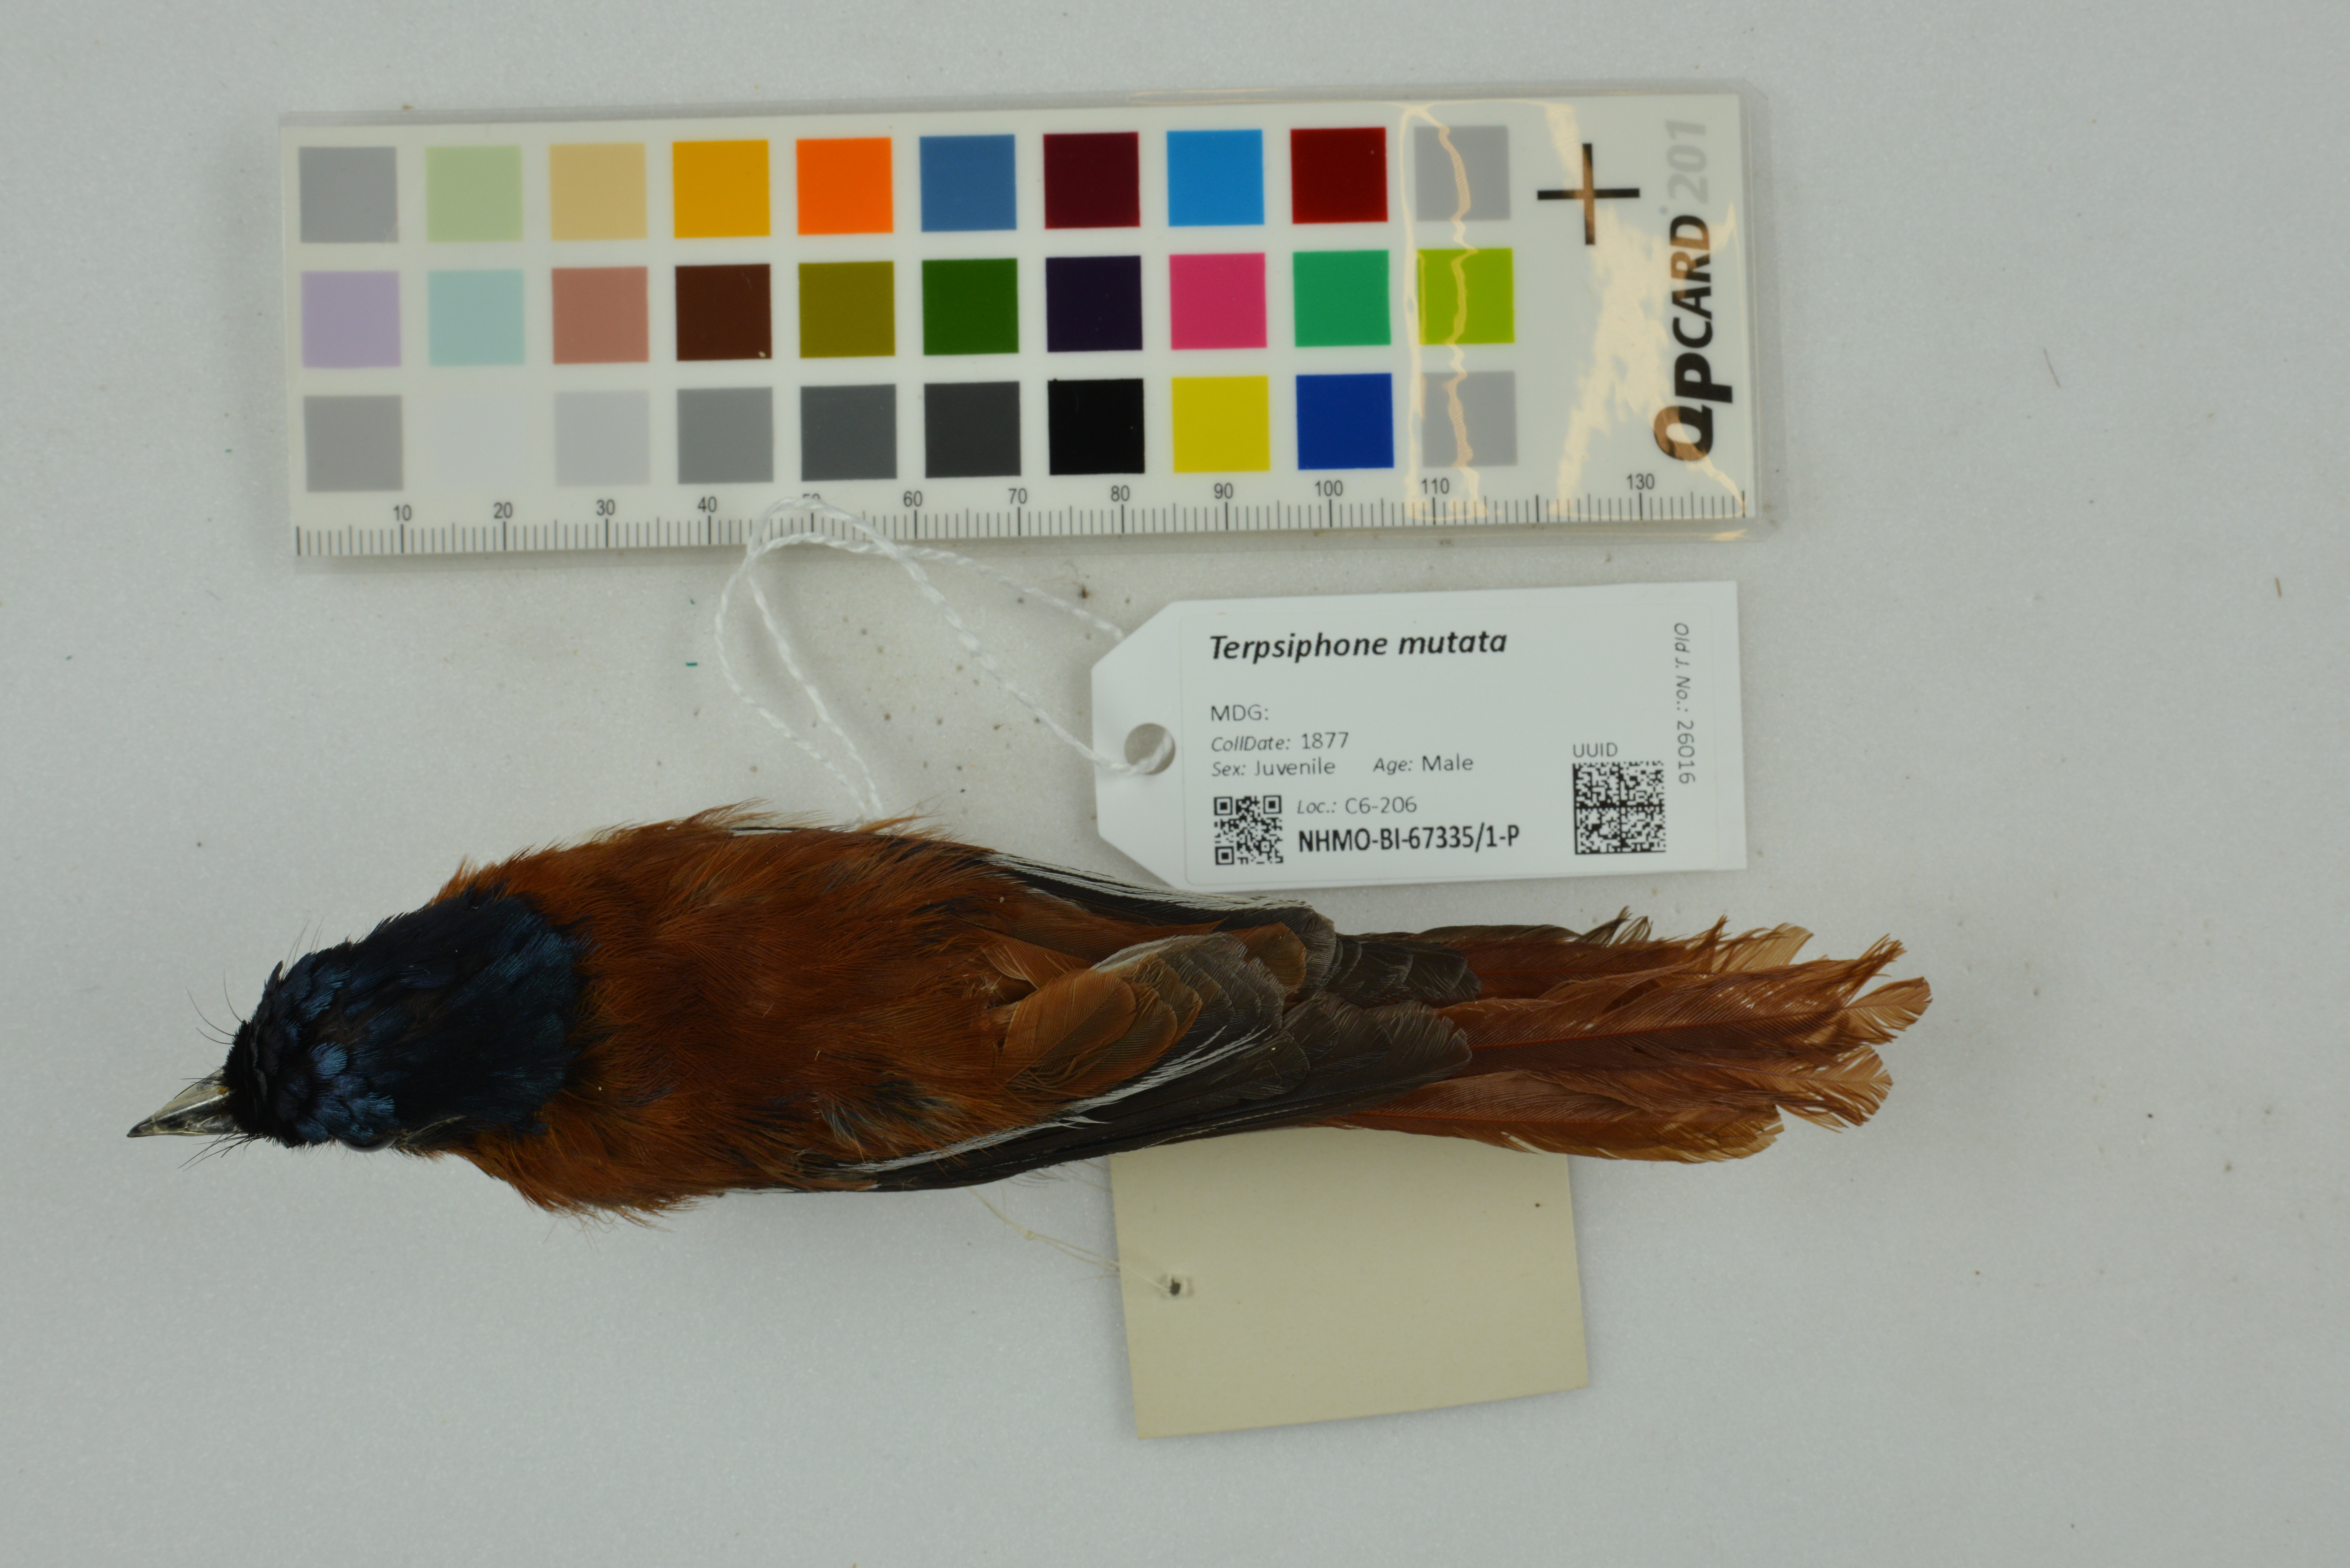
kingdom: Animalia
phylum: Chordata
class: Aves
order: Passeriformes
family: Monarchidae
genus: Terpsiphone
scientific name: Terpsiphone mutata
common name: Malagasy paradise flycatcher
